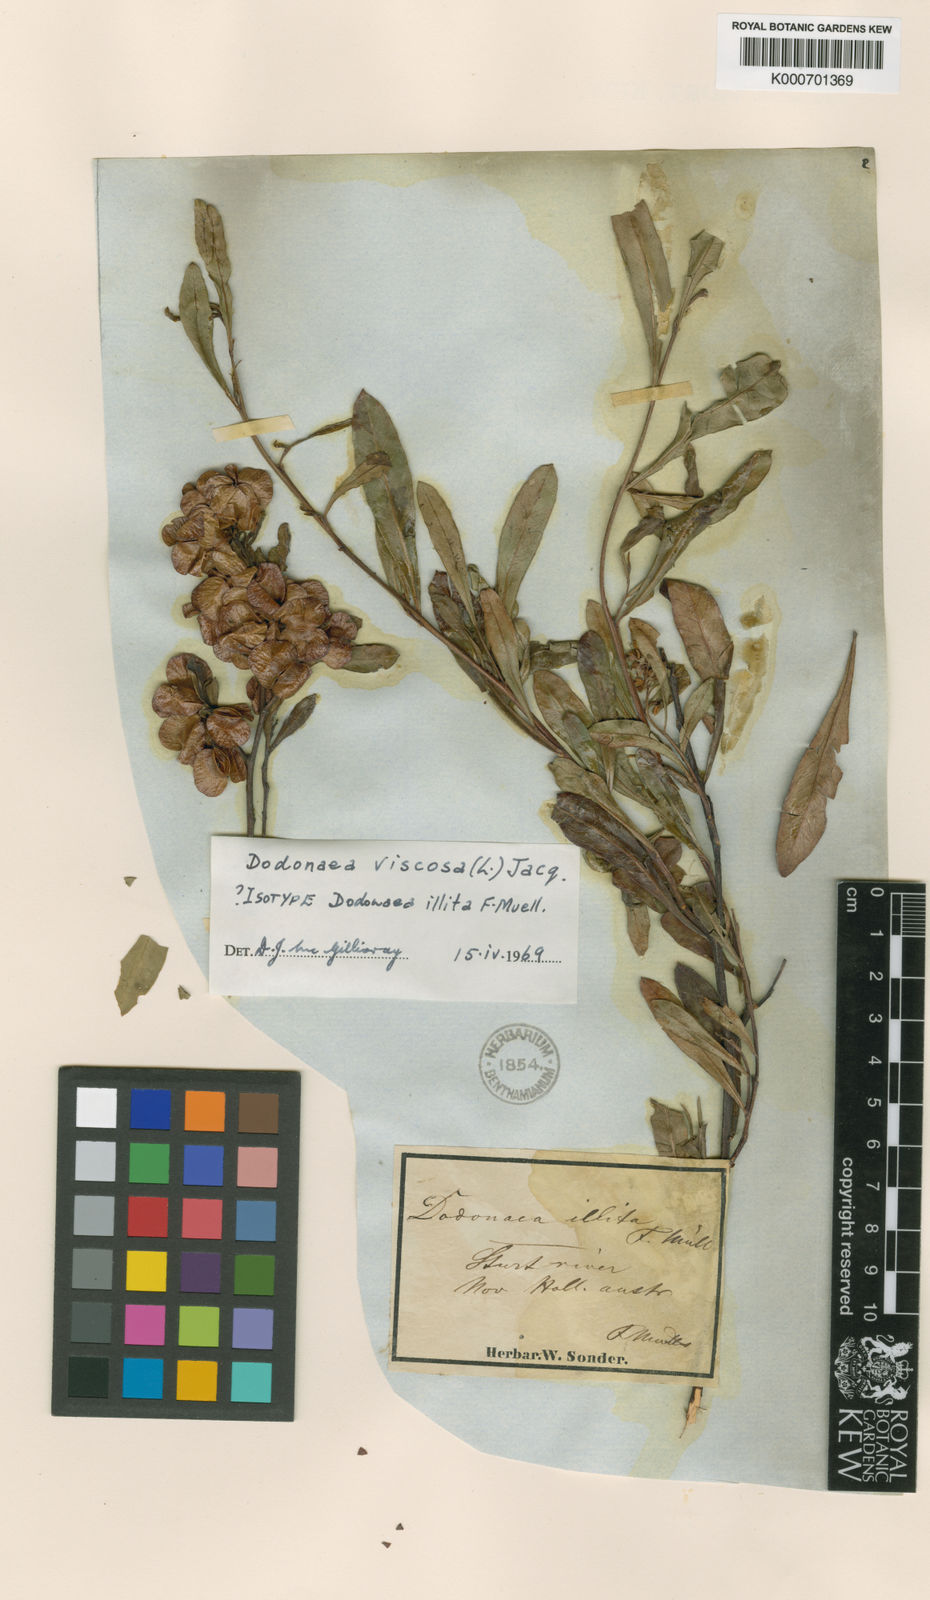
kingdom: Plantae
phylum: Tracheophyta
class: Magnoliopsida
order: Sapindales
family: Sapindaceae
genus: Dodonaea
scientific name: Dodonaea viscosa
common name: Hopbush
